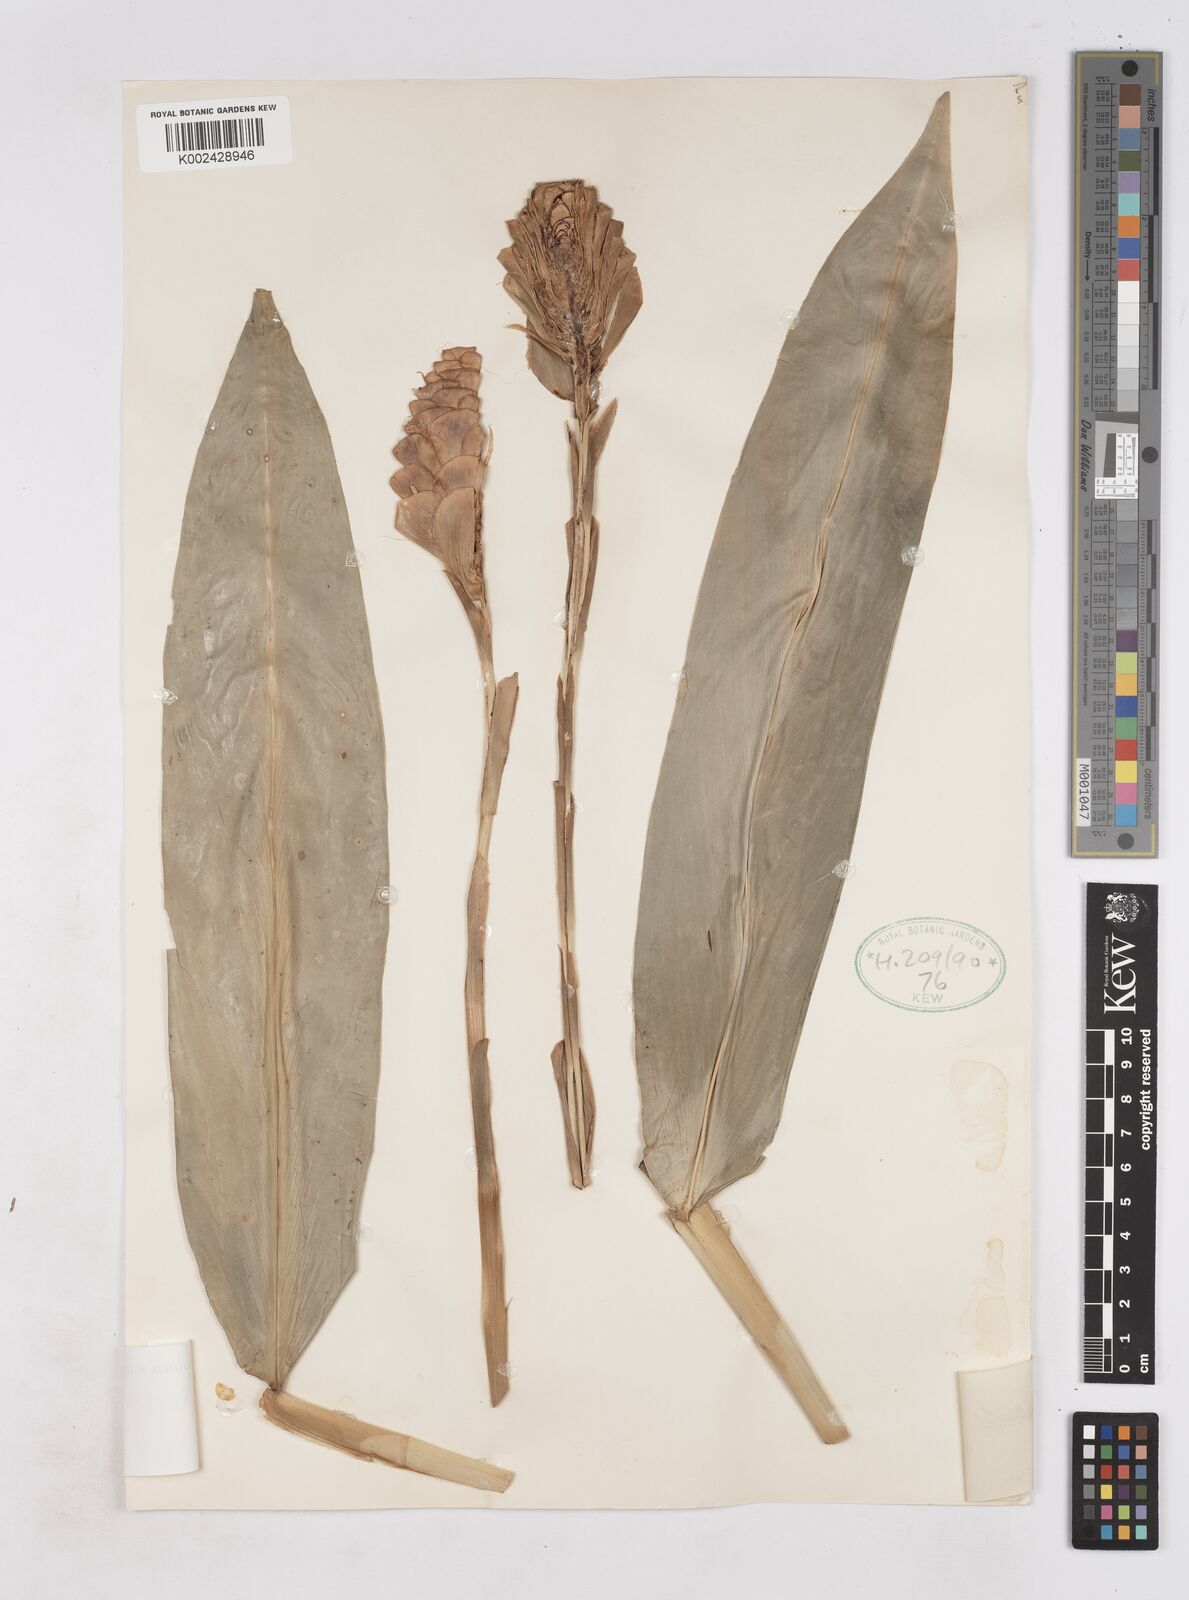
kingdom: Plantae
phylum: Tracheophyta
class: Liliopsida
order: Zingiberales
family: Zingiberaceae
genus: Zingiber
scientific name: Zingiber spectabile
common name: Beehive ginger
